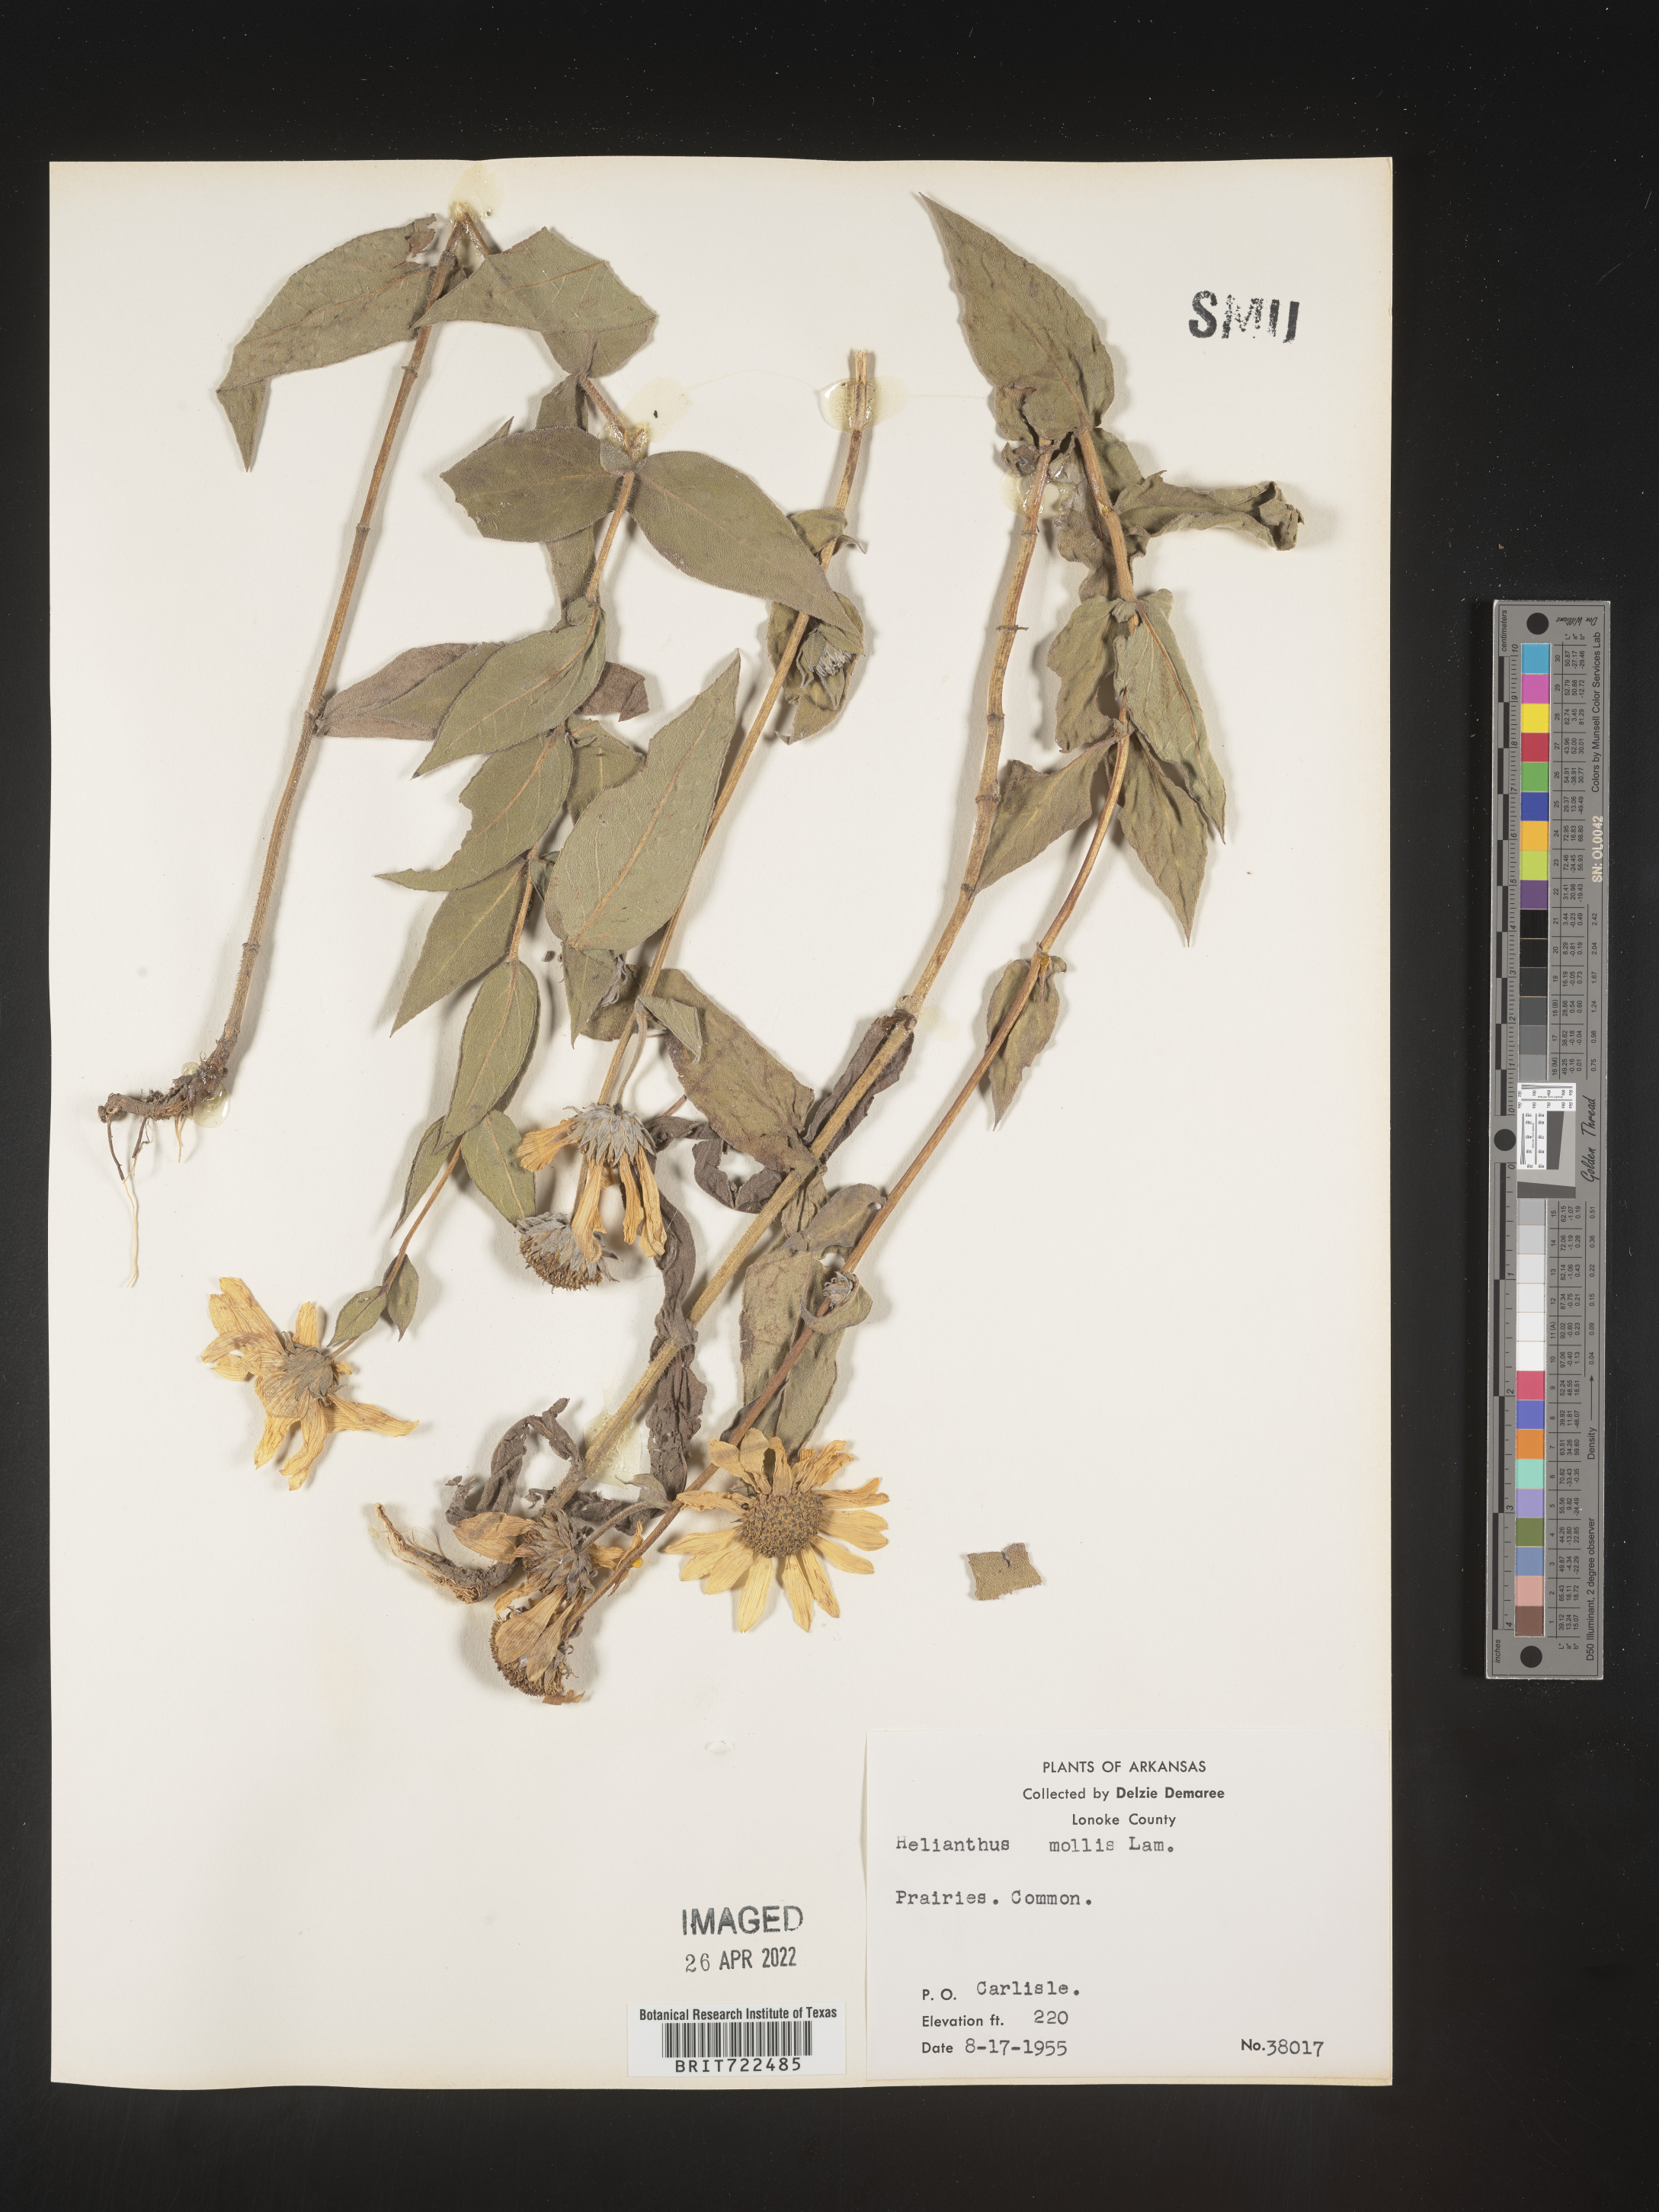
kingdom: Plantae
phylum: Tracheophyta
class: Magnoliopsida
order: Asterales
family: Asteraceae
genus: Helianthus
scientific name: Helianthus mollis
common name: Ashy sunflower
